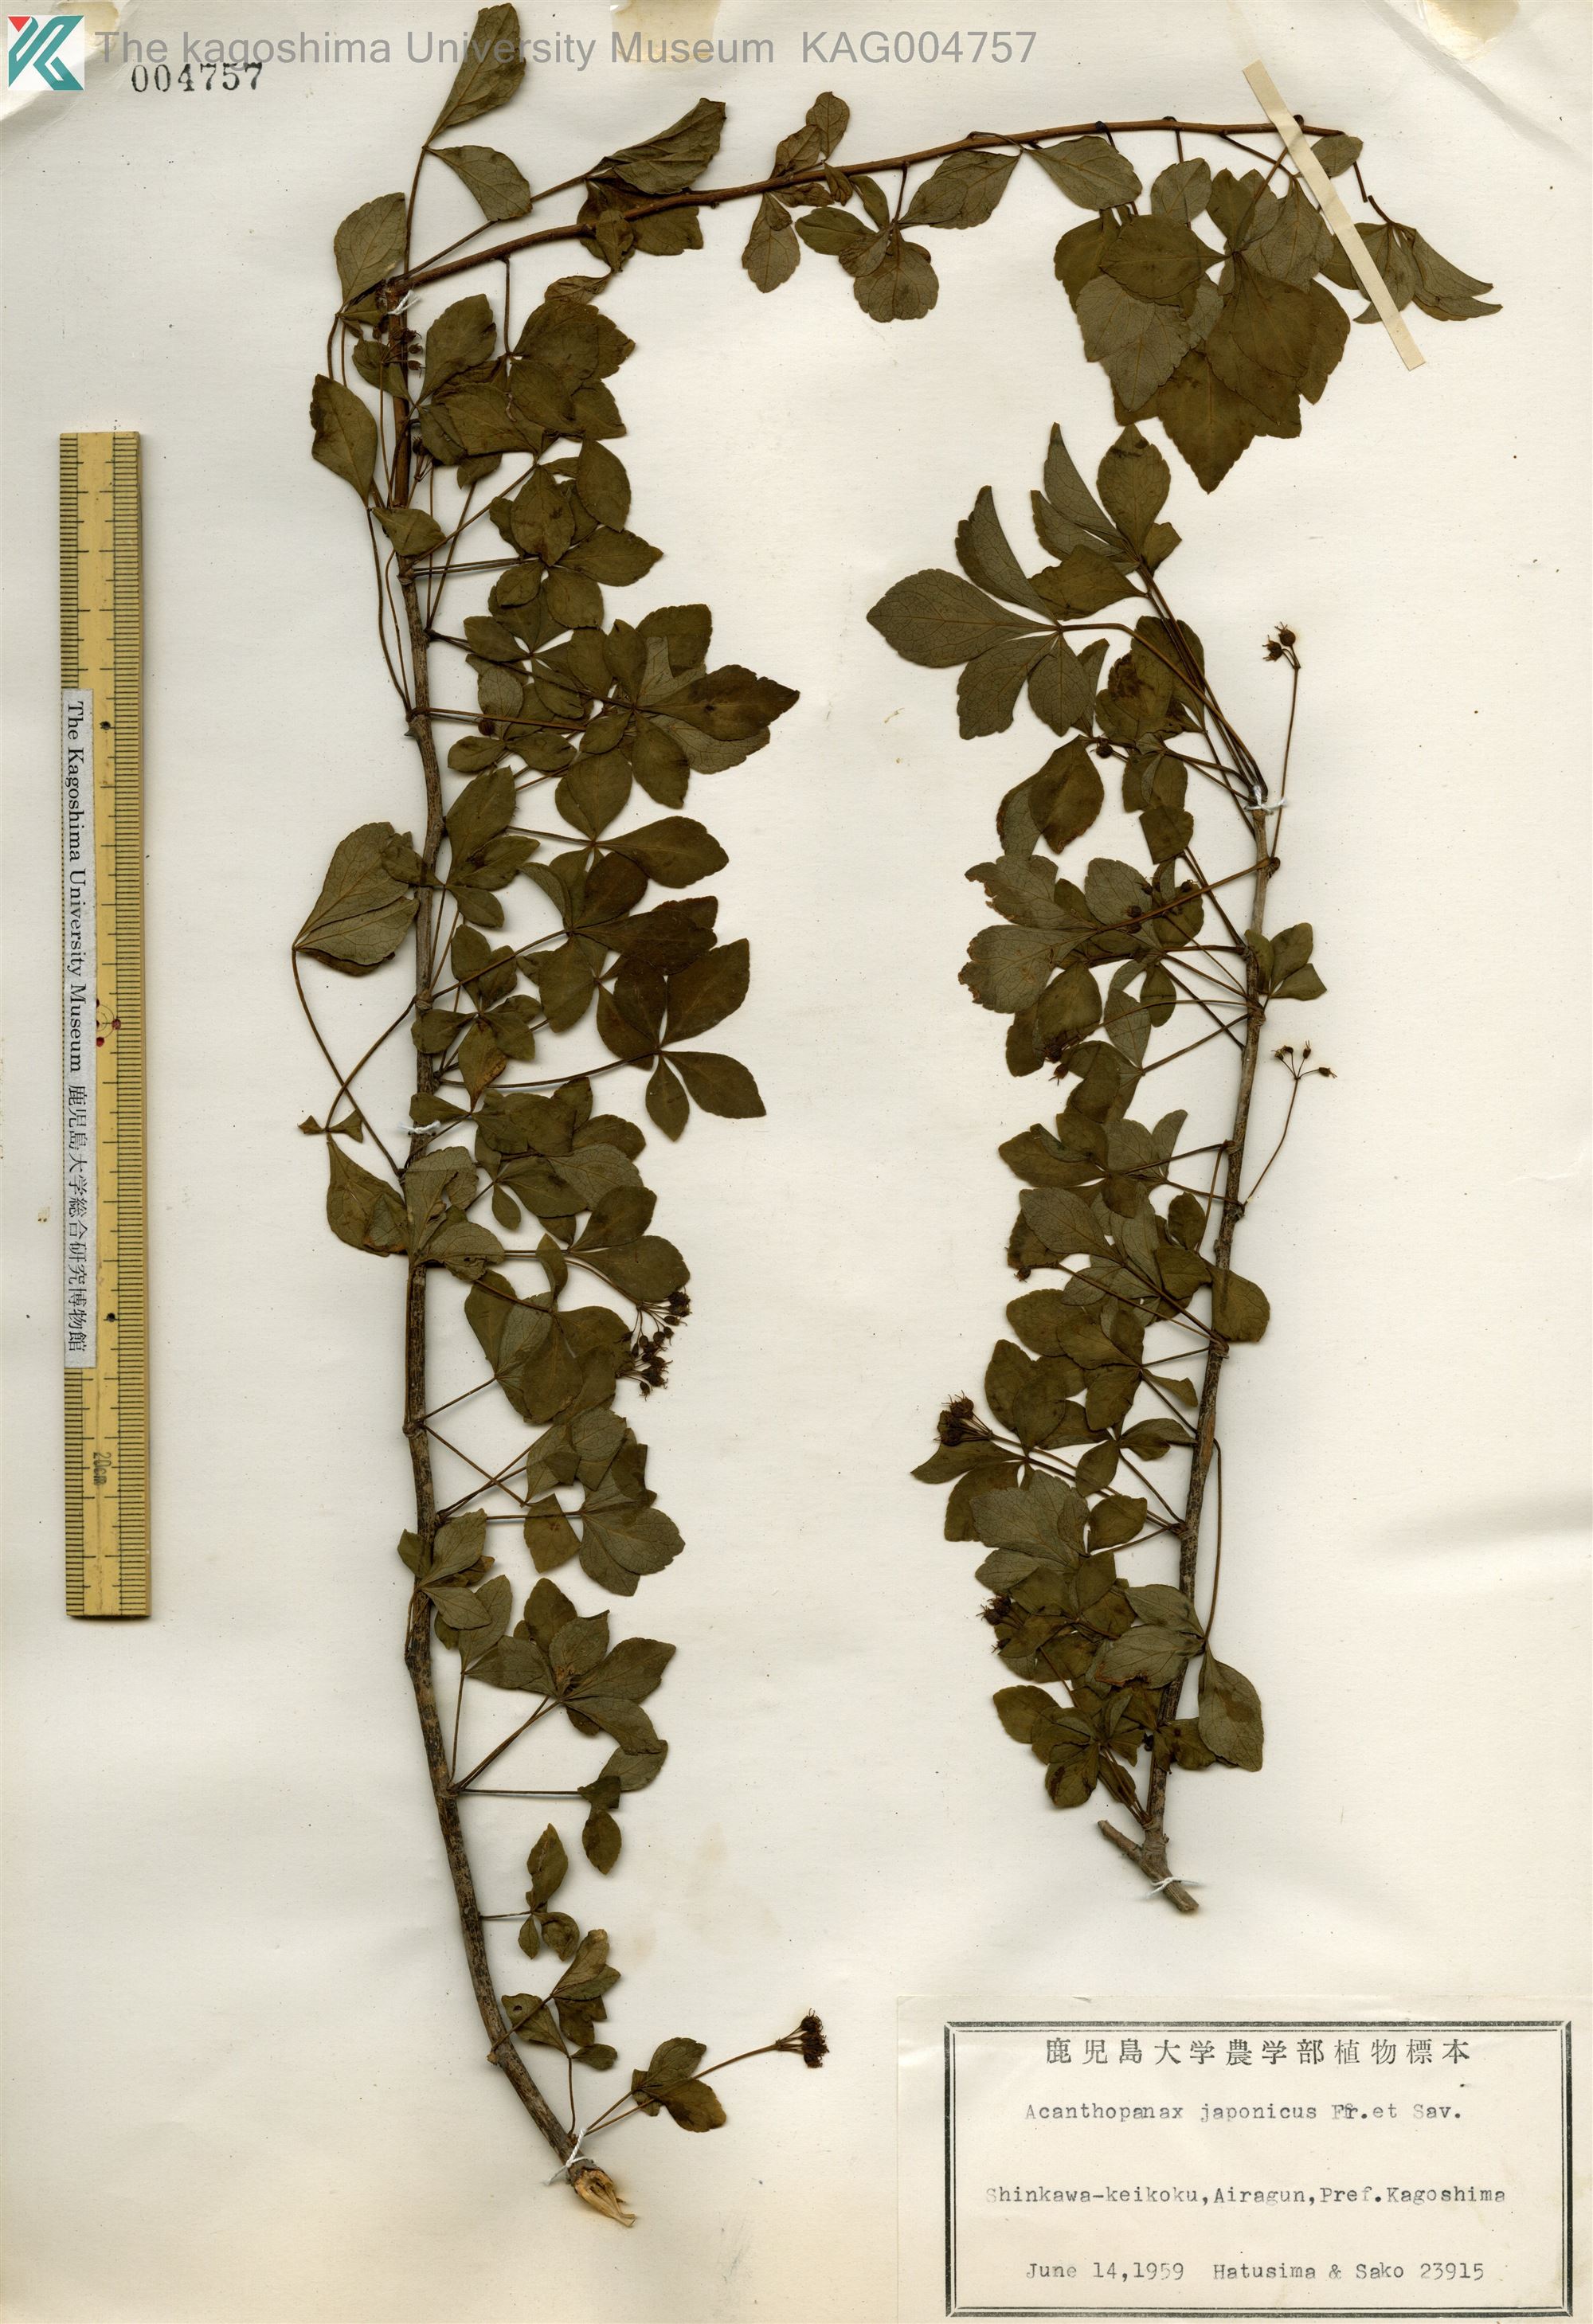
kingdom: Plantae
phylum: Tracheophyta
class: Magnoliopsida
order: Apiales
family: Araliaceae
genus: Eleutherococcus
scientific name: Eleutherococcus japonicus
